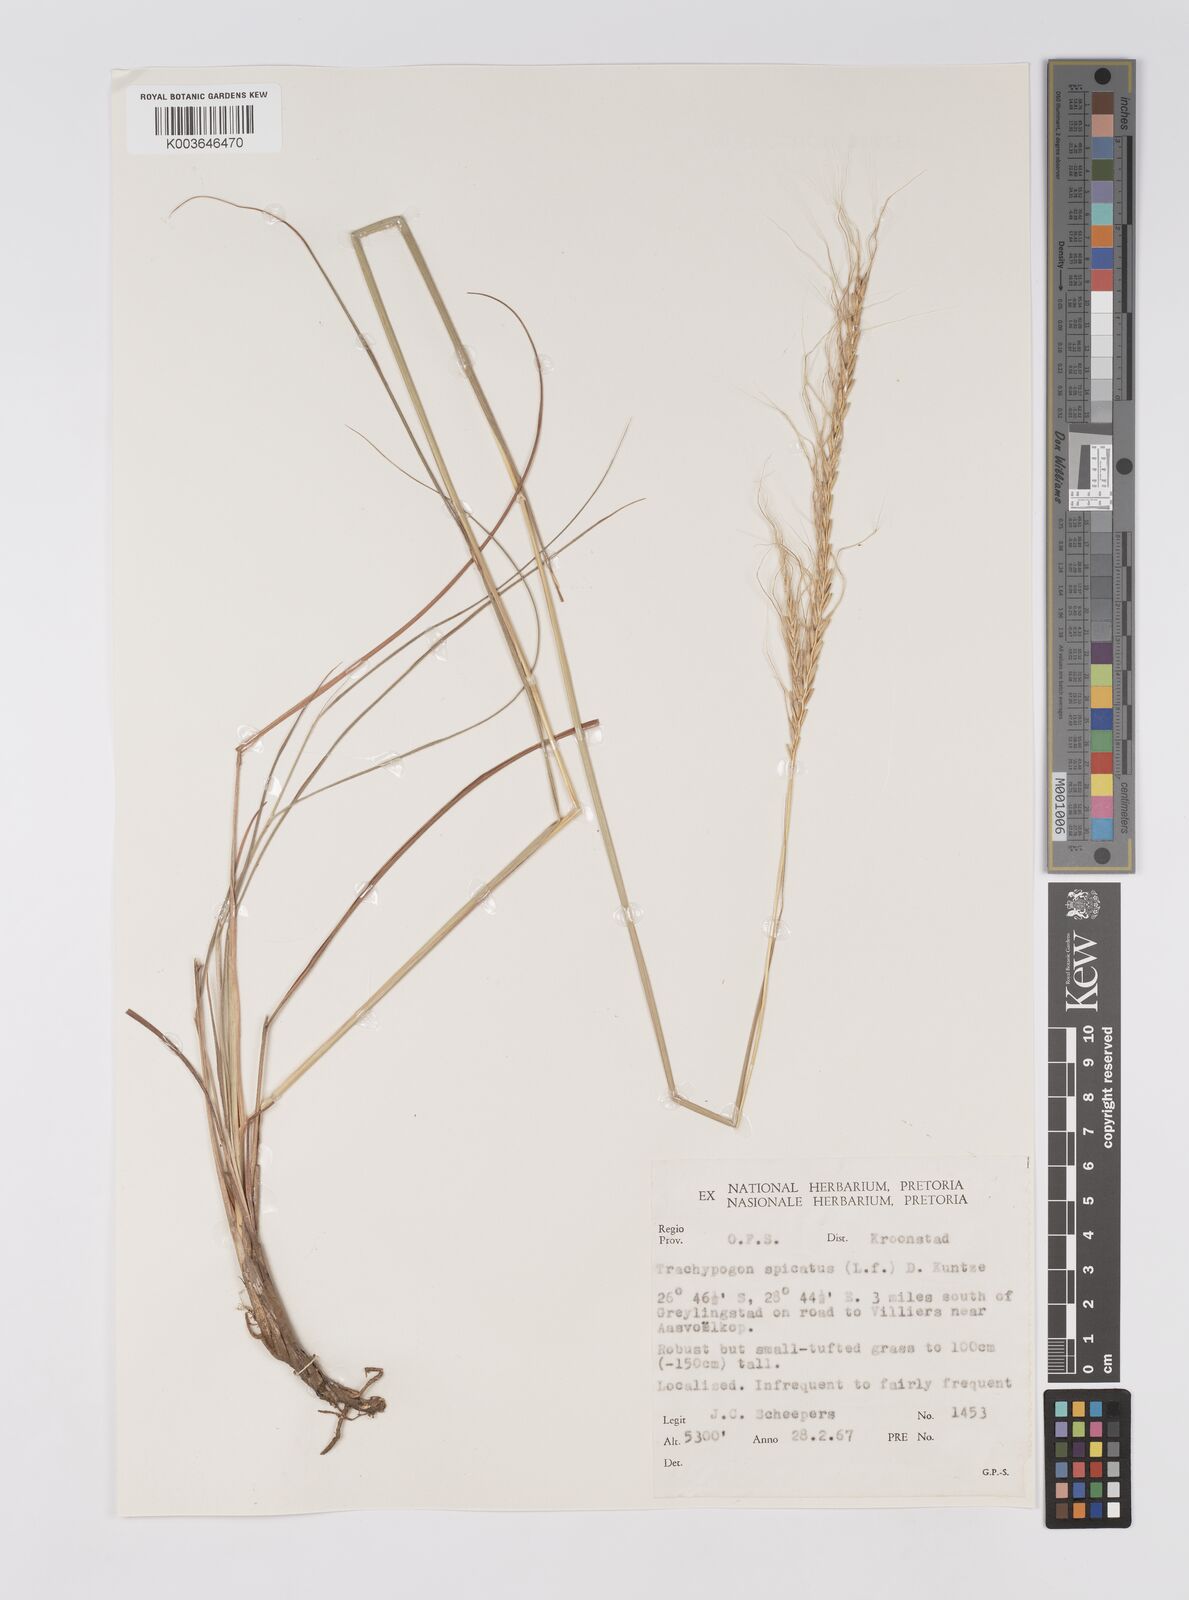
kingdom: Plantae
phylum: Tracheophyta
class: Liliopsida
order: Poales
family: Poaceae
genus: Trachypogon
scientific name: Trachypogon spicatus
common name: Crinkle-awn
